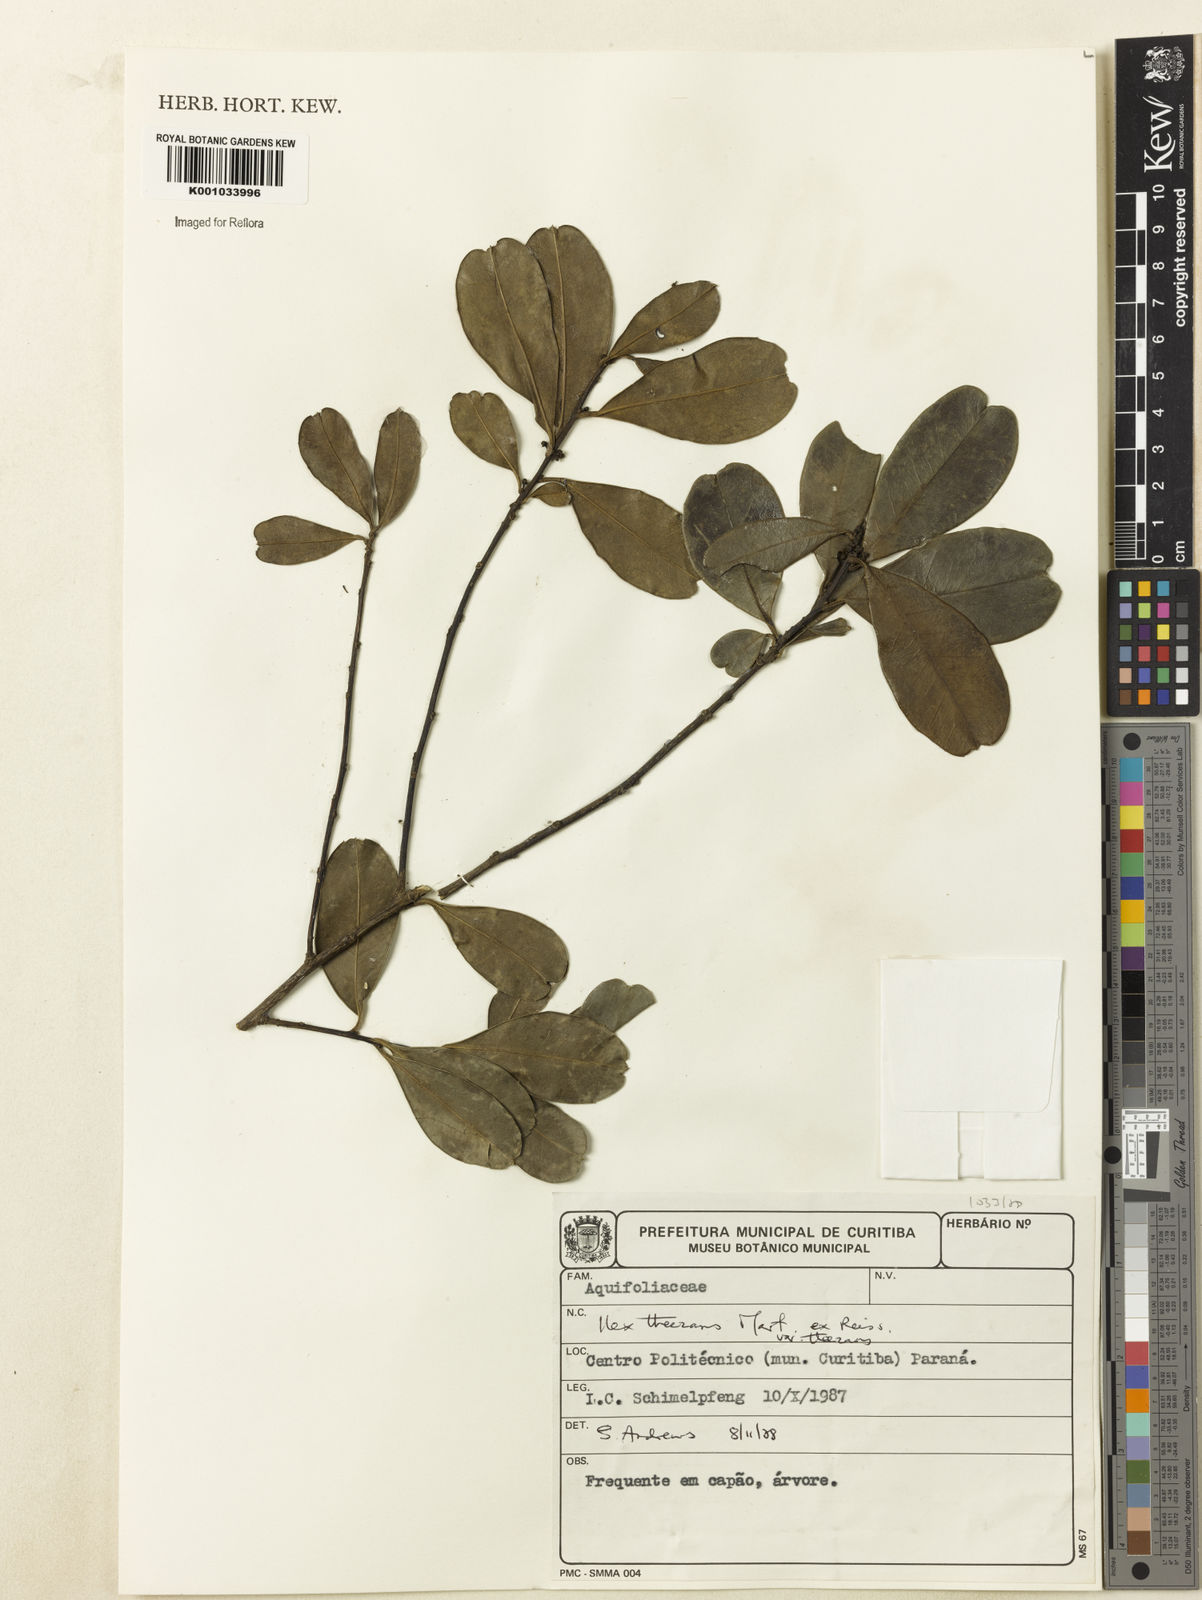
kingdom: Plantae
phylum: Tracheophyta
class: Magnoliopsida
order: Aquifoliales
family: Aquifoliaceae
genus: Ilex
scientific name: Ilex
